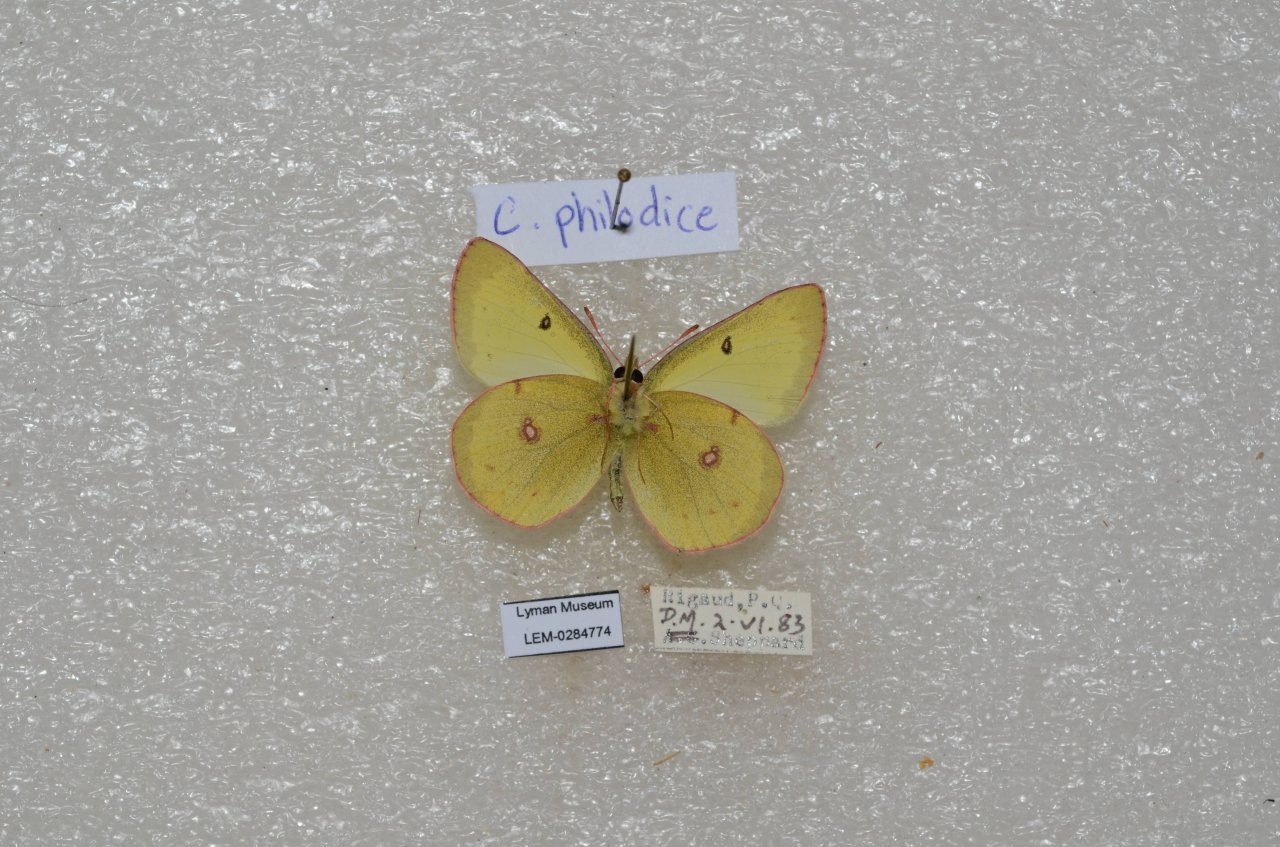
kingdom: Animalia
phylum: Arthropoda
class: Insecta
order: Lepidoptera
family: Pieridae
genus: Colias
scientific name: Colias philodice
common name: Clouded Sulphur
